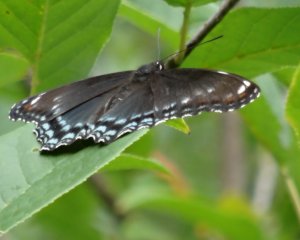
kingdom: Animalia
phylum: Arthropoda
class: Insecta
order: Lepidoptera
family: Nymphalidae
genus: Limenitis
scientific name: Limenitis astyanax
